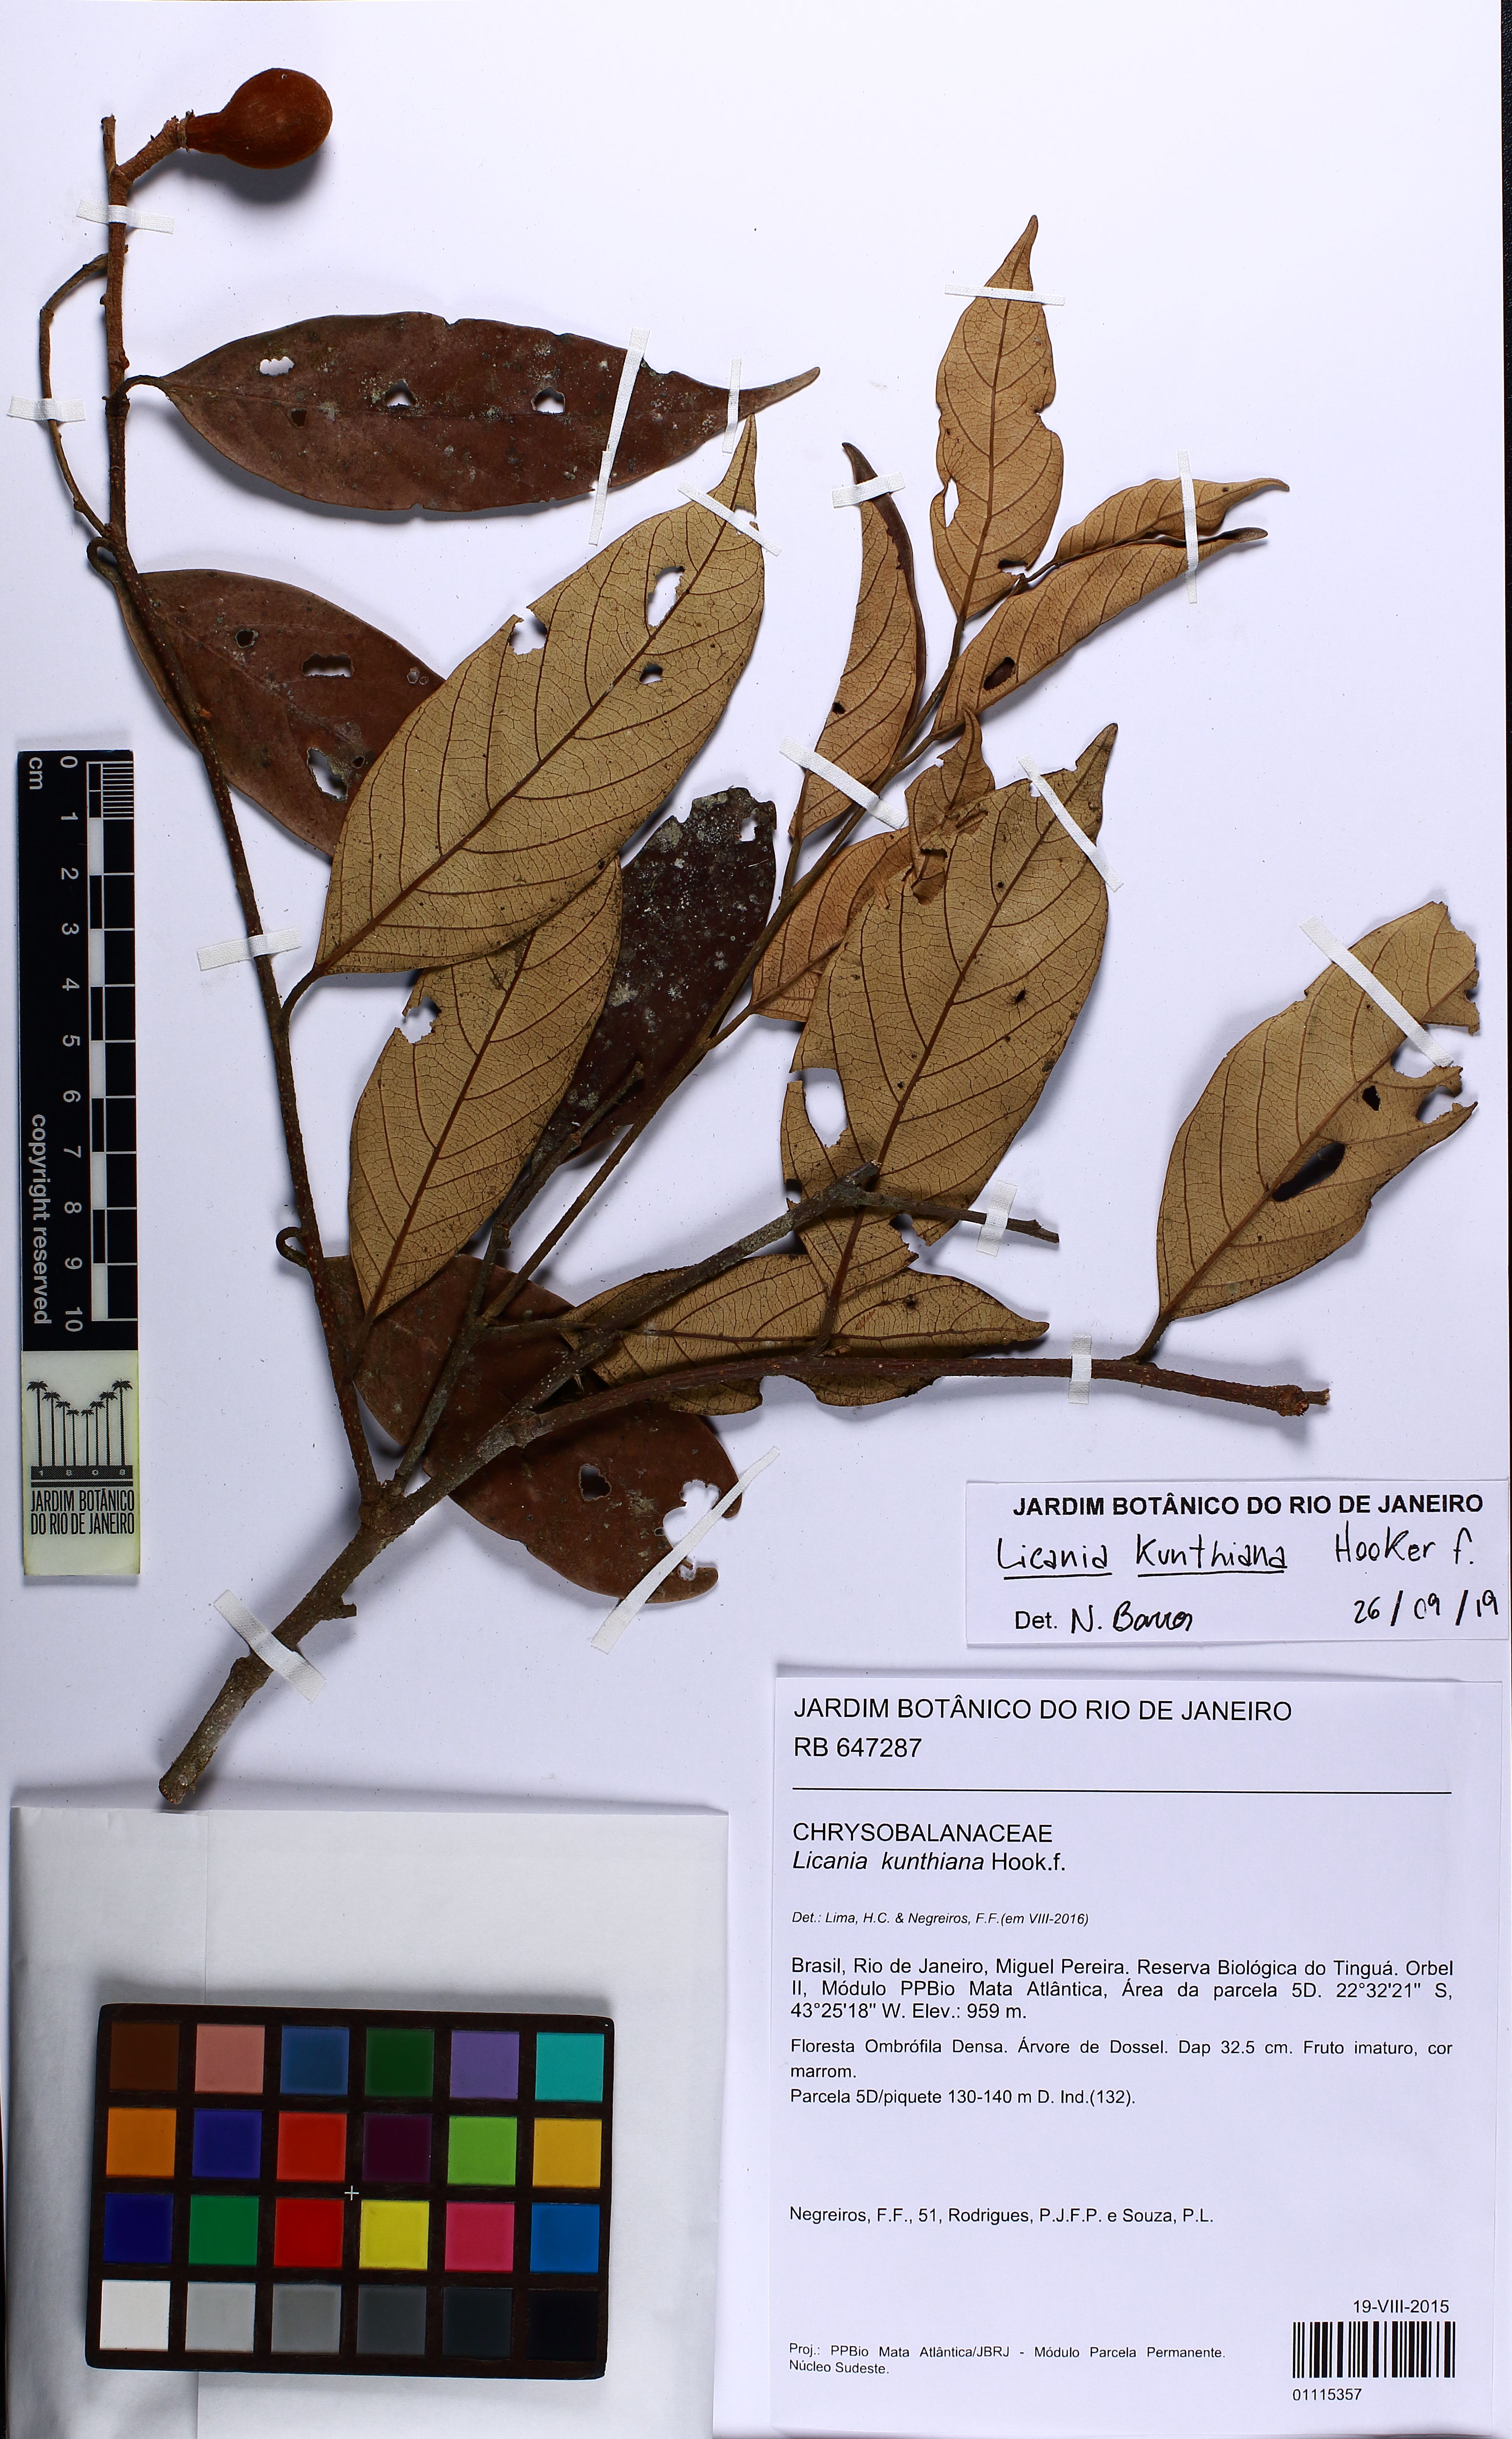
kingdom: Plantae
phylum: Tracheophyta
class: Magnoliopsida
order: Malpighiales
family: Chrysobalanaceae
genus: Licania
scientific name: Licania kunthiana
